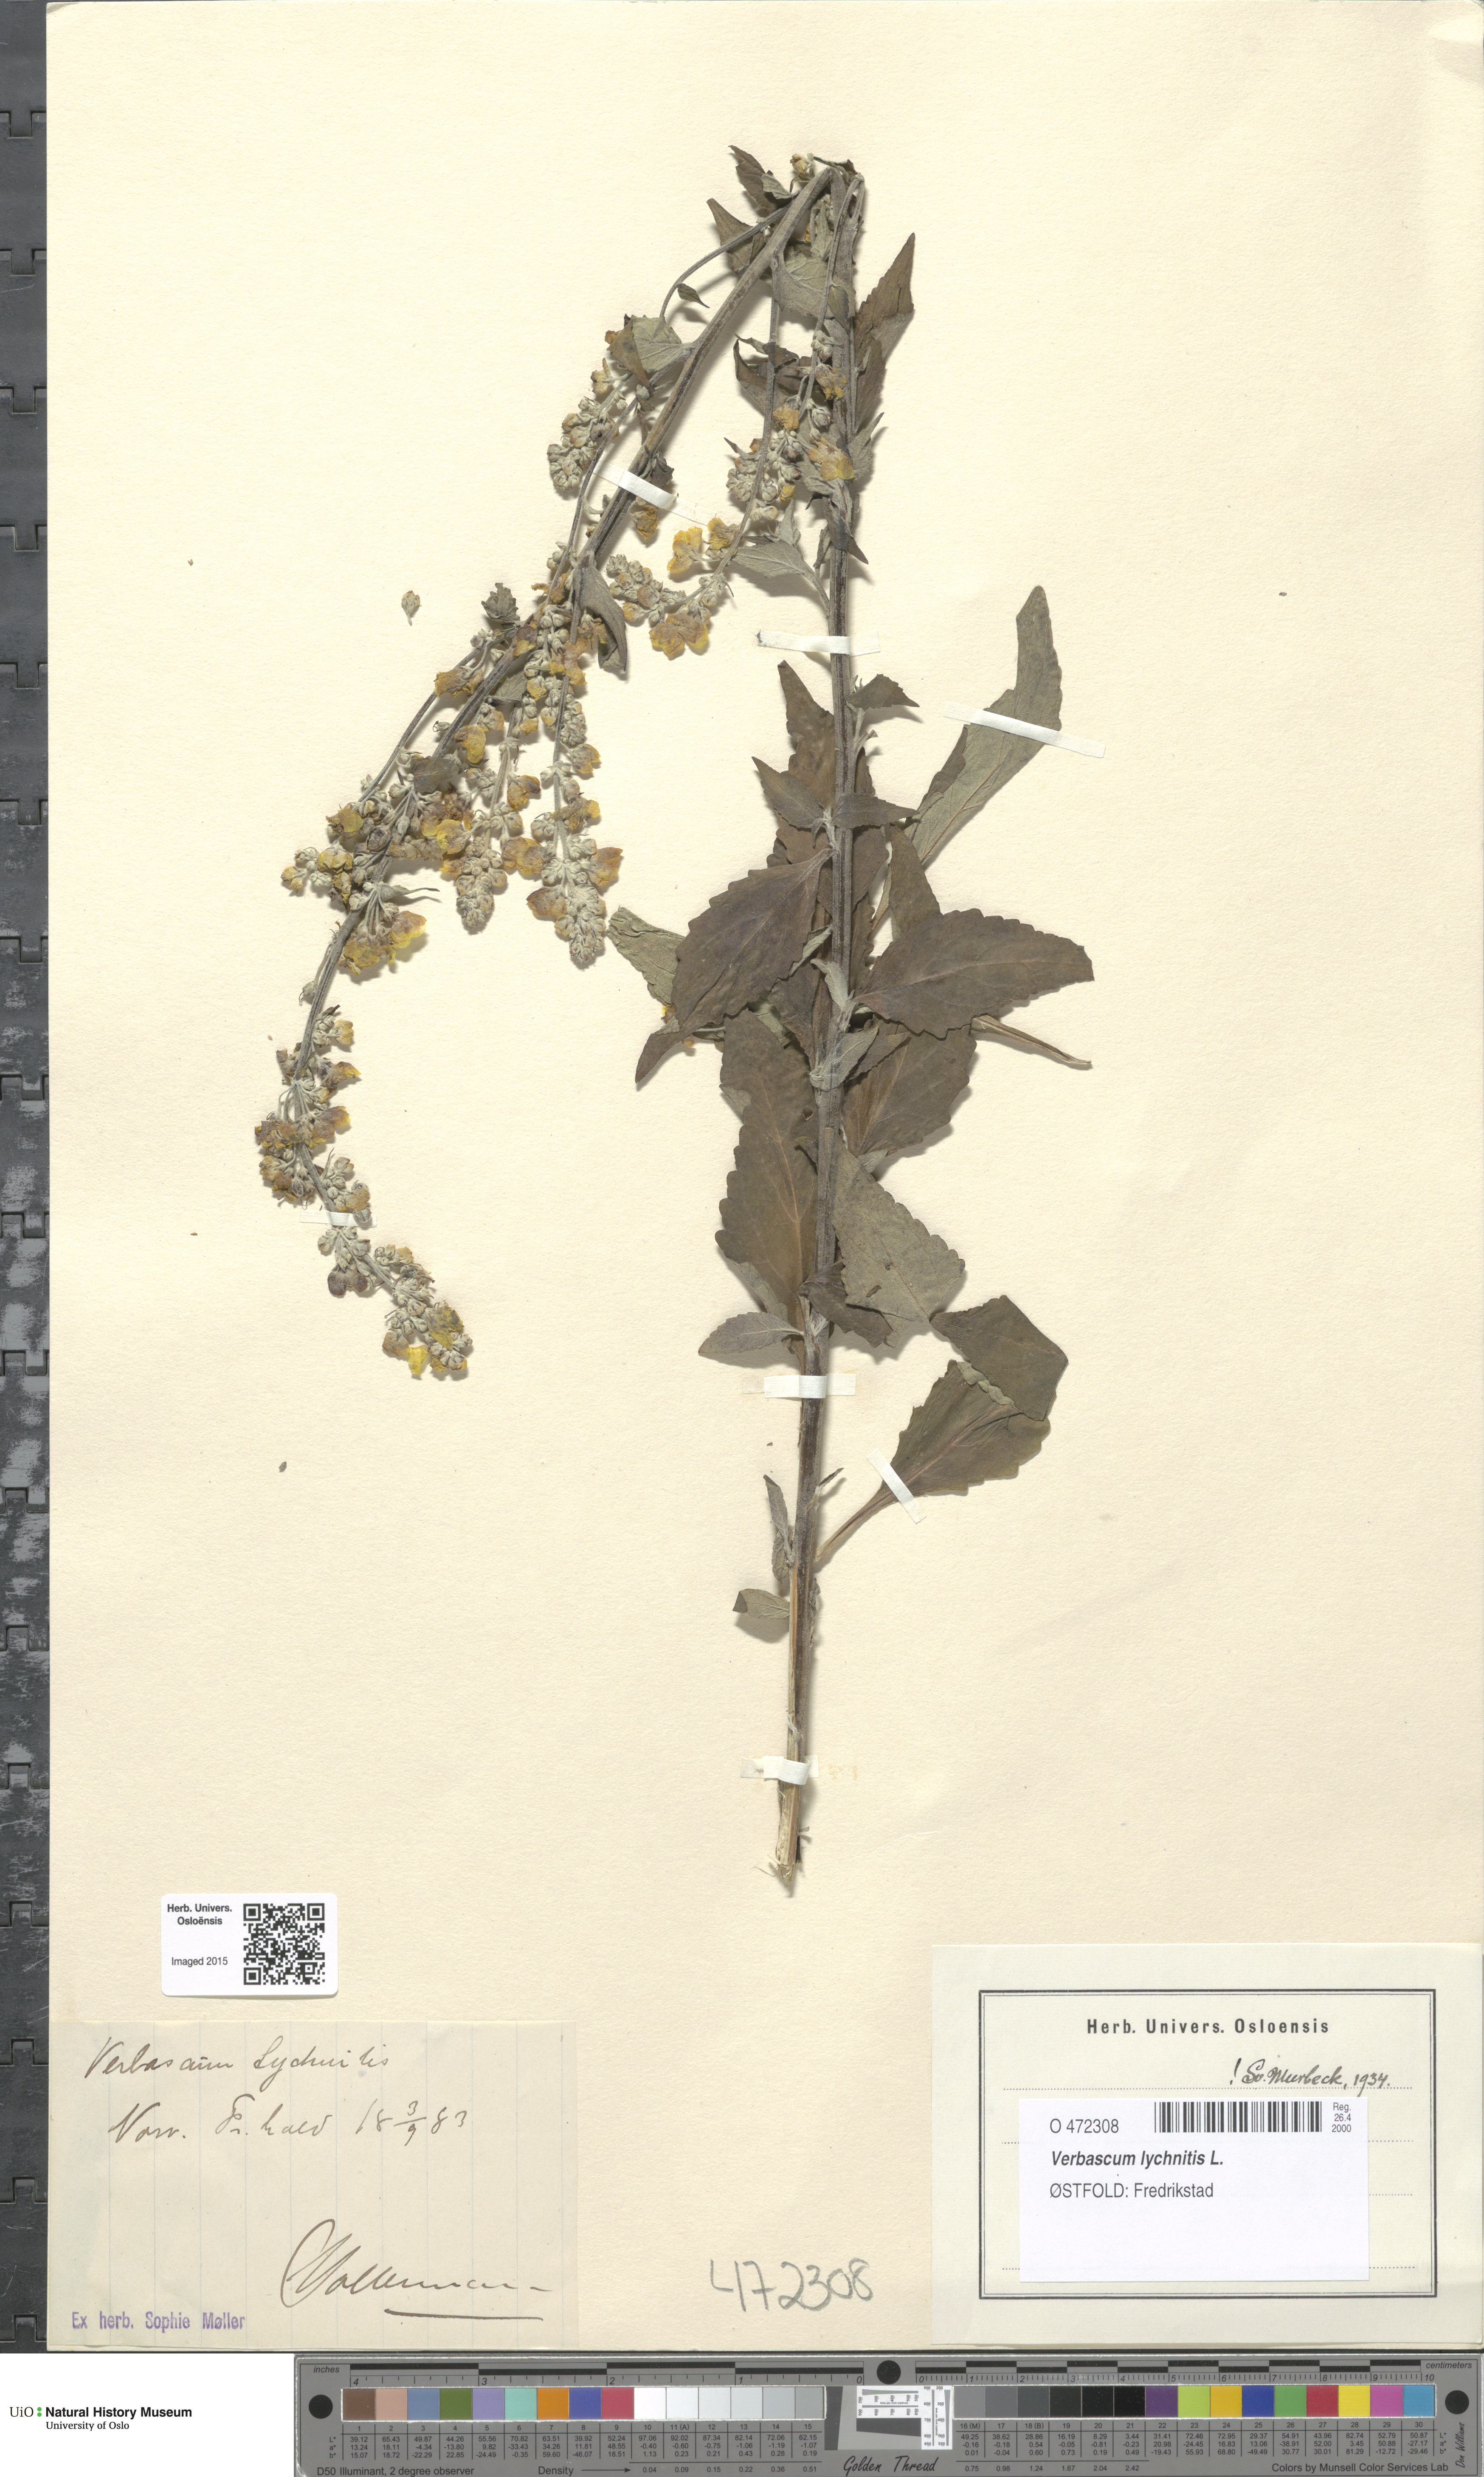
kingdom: Plantae
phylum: Tracheophyta
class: Magnoliopsida
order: Lamiales
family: Scrophulariaceae
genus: Verbascum
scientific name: Verbascum lychnitis
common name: White mullein
